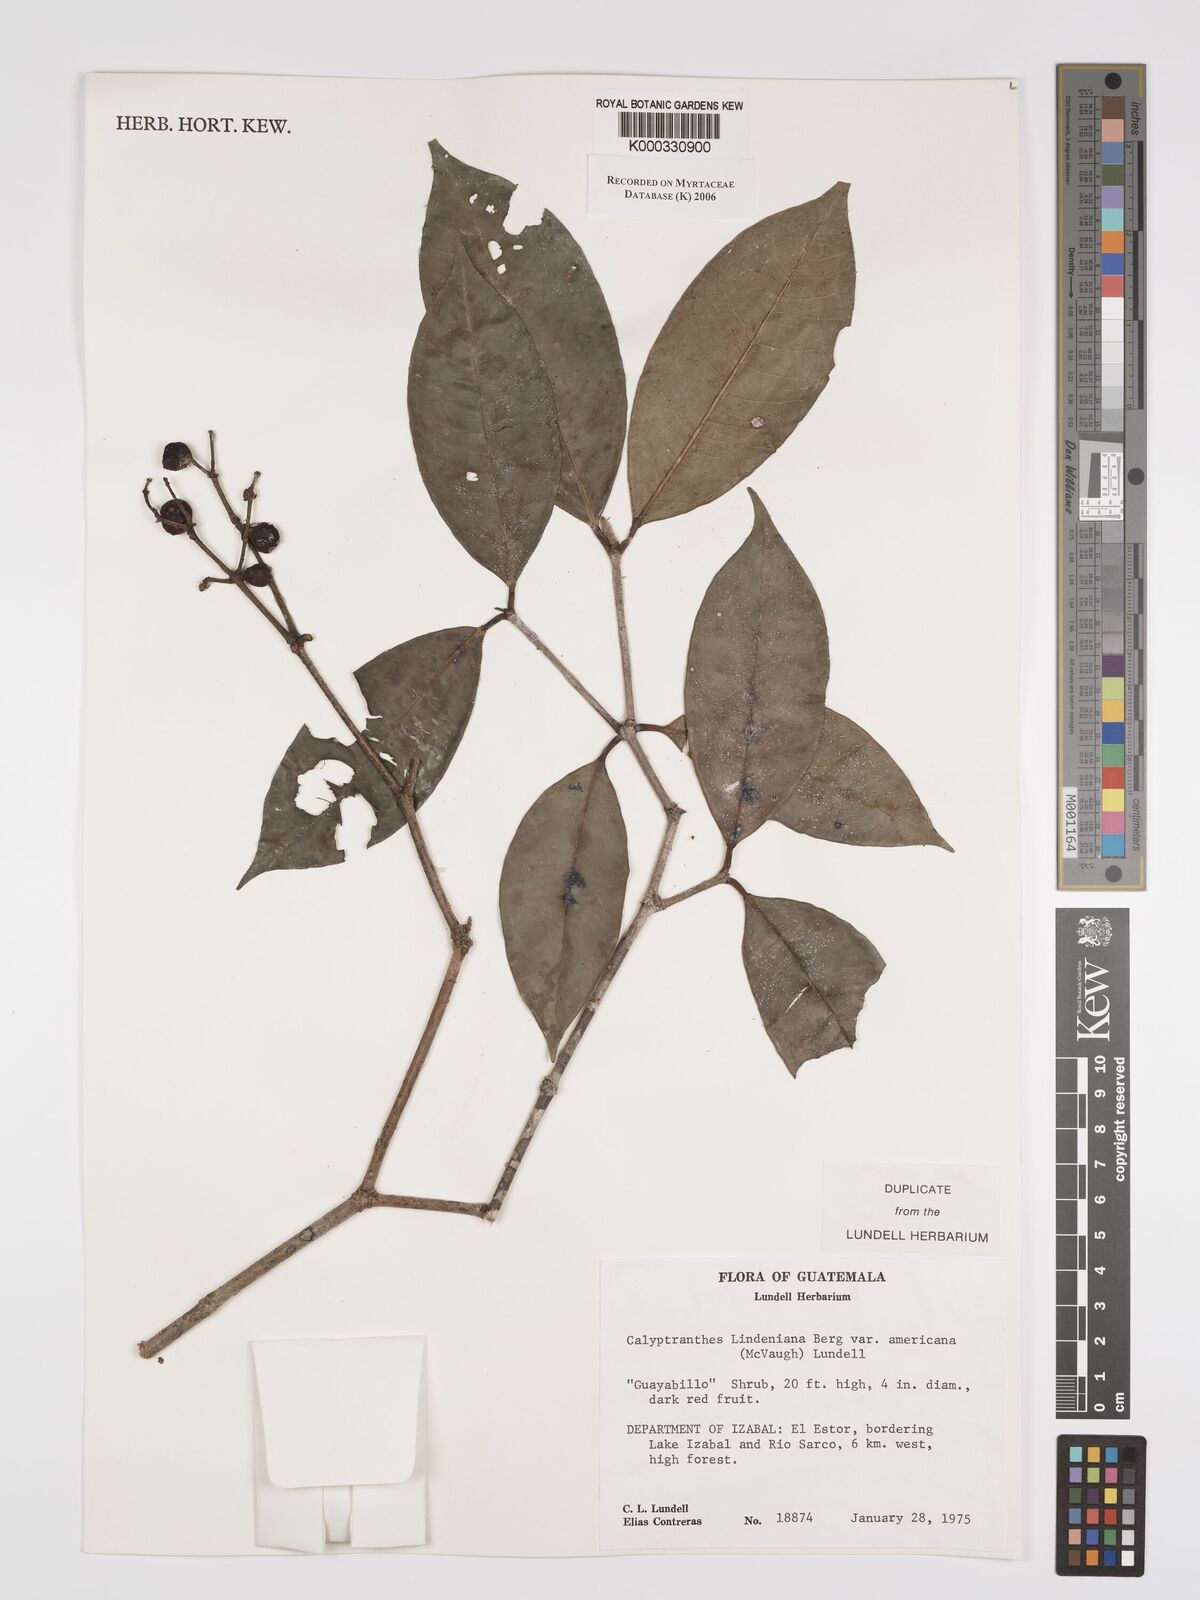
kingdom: Plantae
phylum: Tracheophyta
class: Magnoliopsida
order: Myrtales
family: Myrtaceae
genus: Myrcia
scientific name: Myrcia chytraculia
